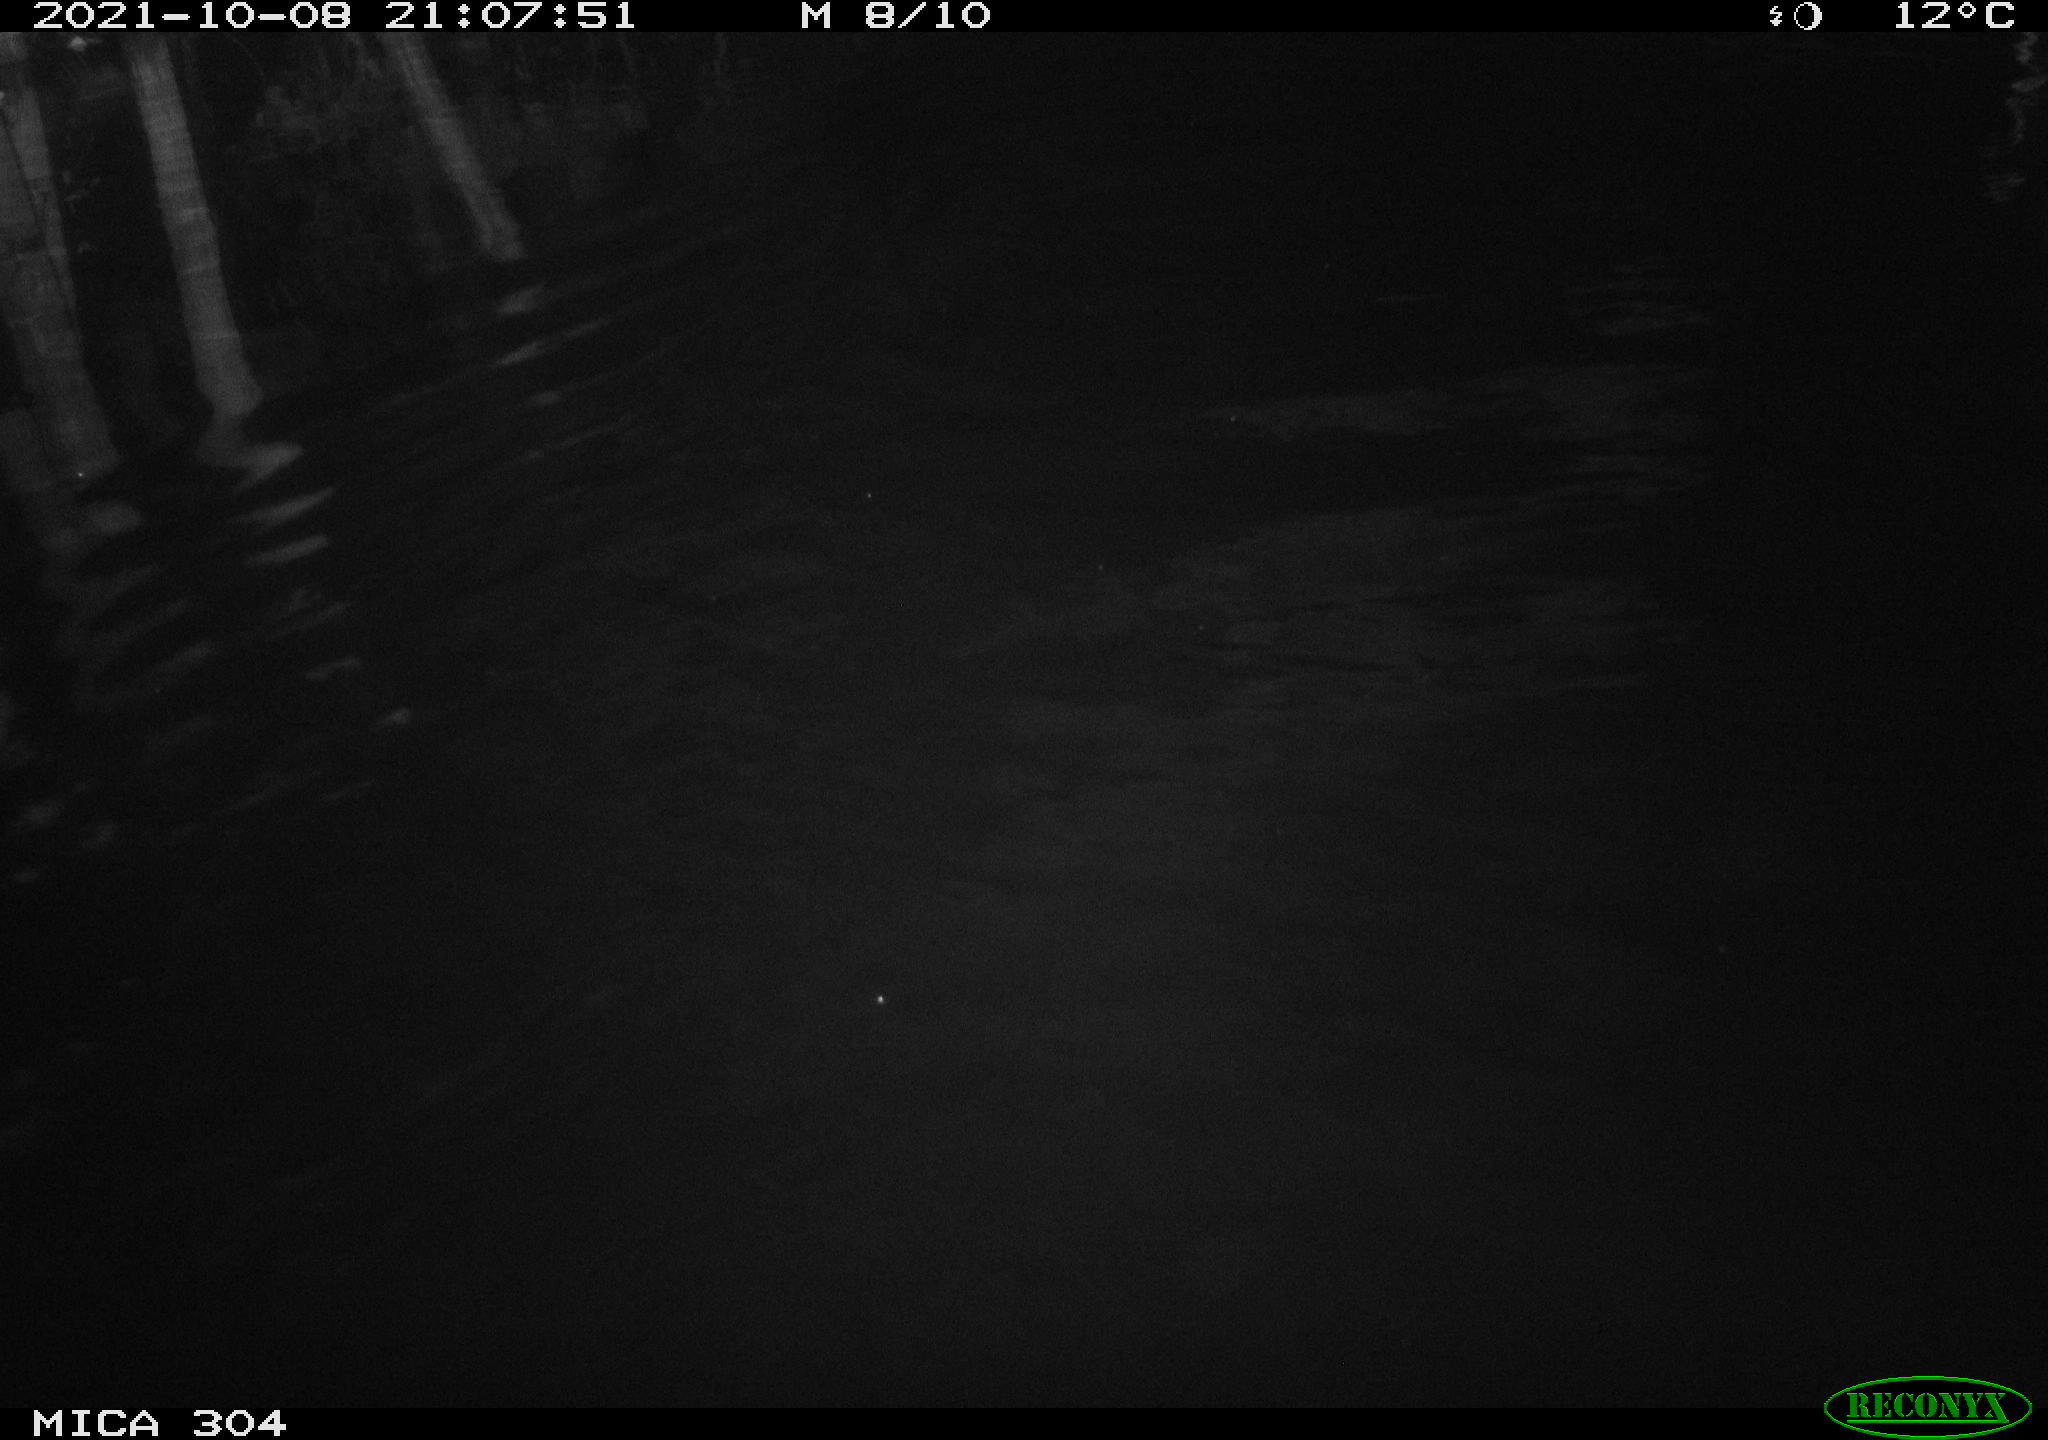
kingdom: Animalia
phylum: Chordata
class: Mammalia
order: Rodentia
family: Cricetidae
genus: Ondatra
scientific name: Ondatra zibethicus
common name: Muskrat
